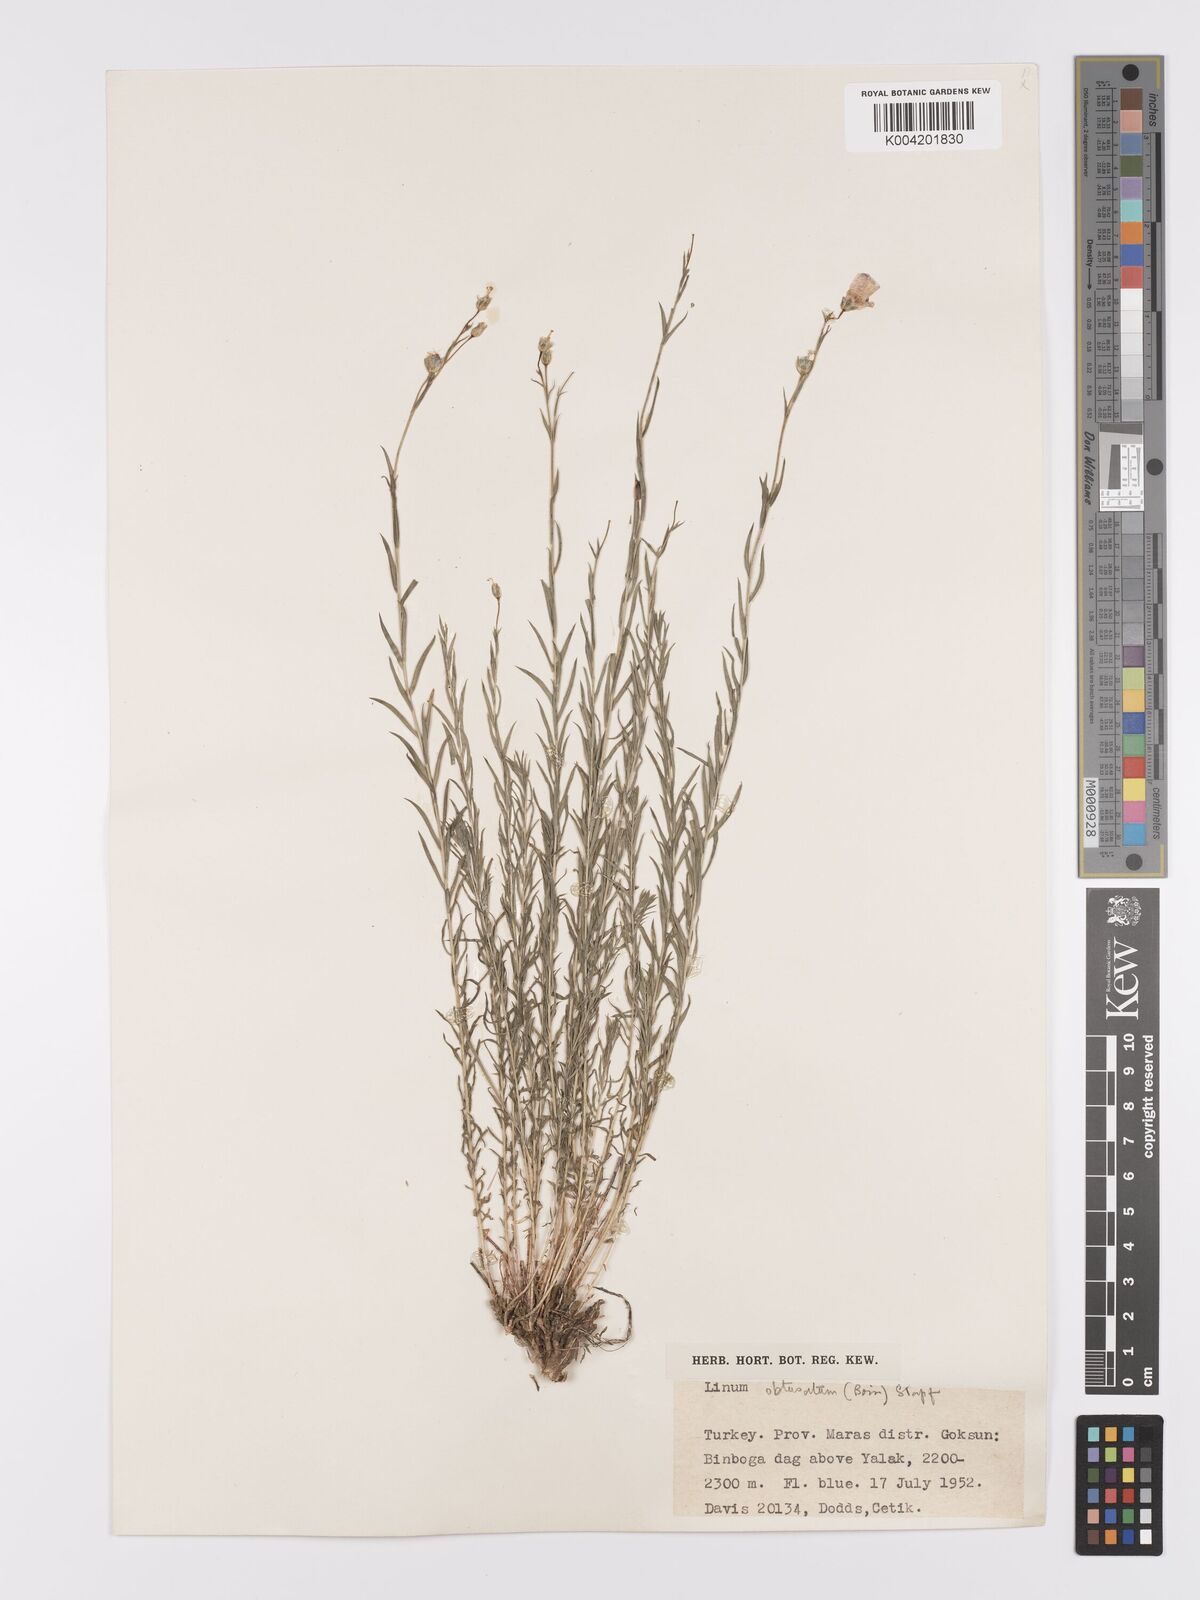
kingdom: Plantae
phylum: Tracheophyta
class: Magnoliopsida
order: Malpighiales
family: Linaceae
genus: Linum
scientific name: Linum obtusatum
